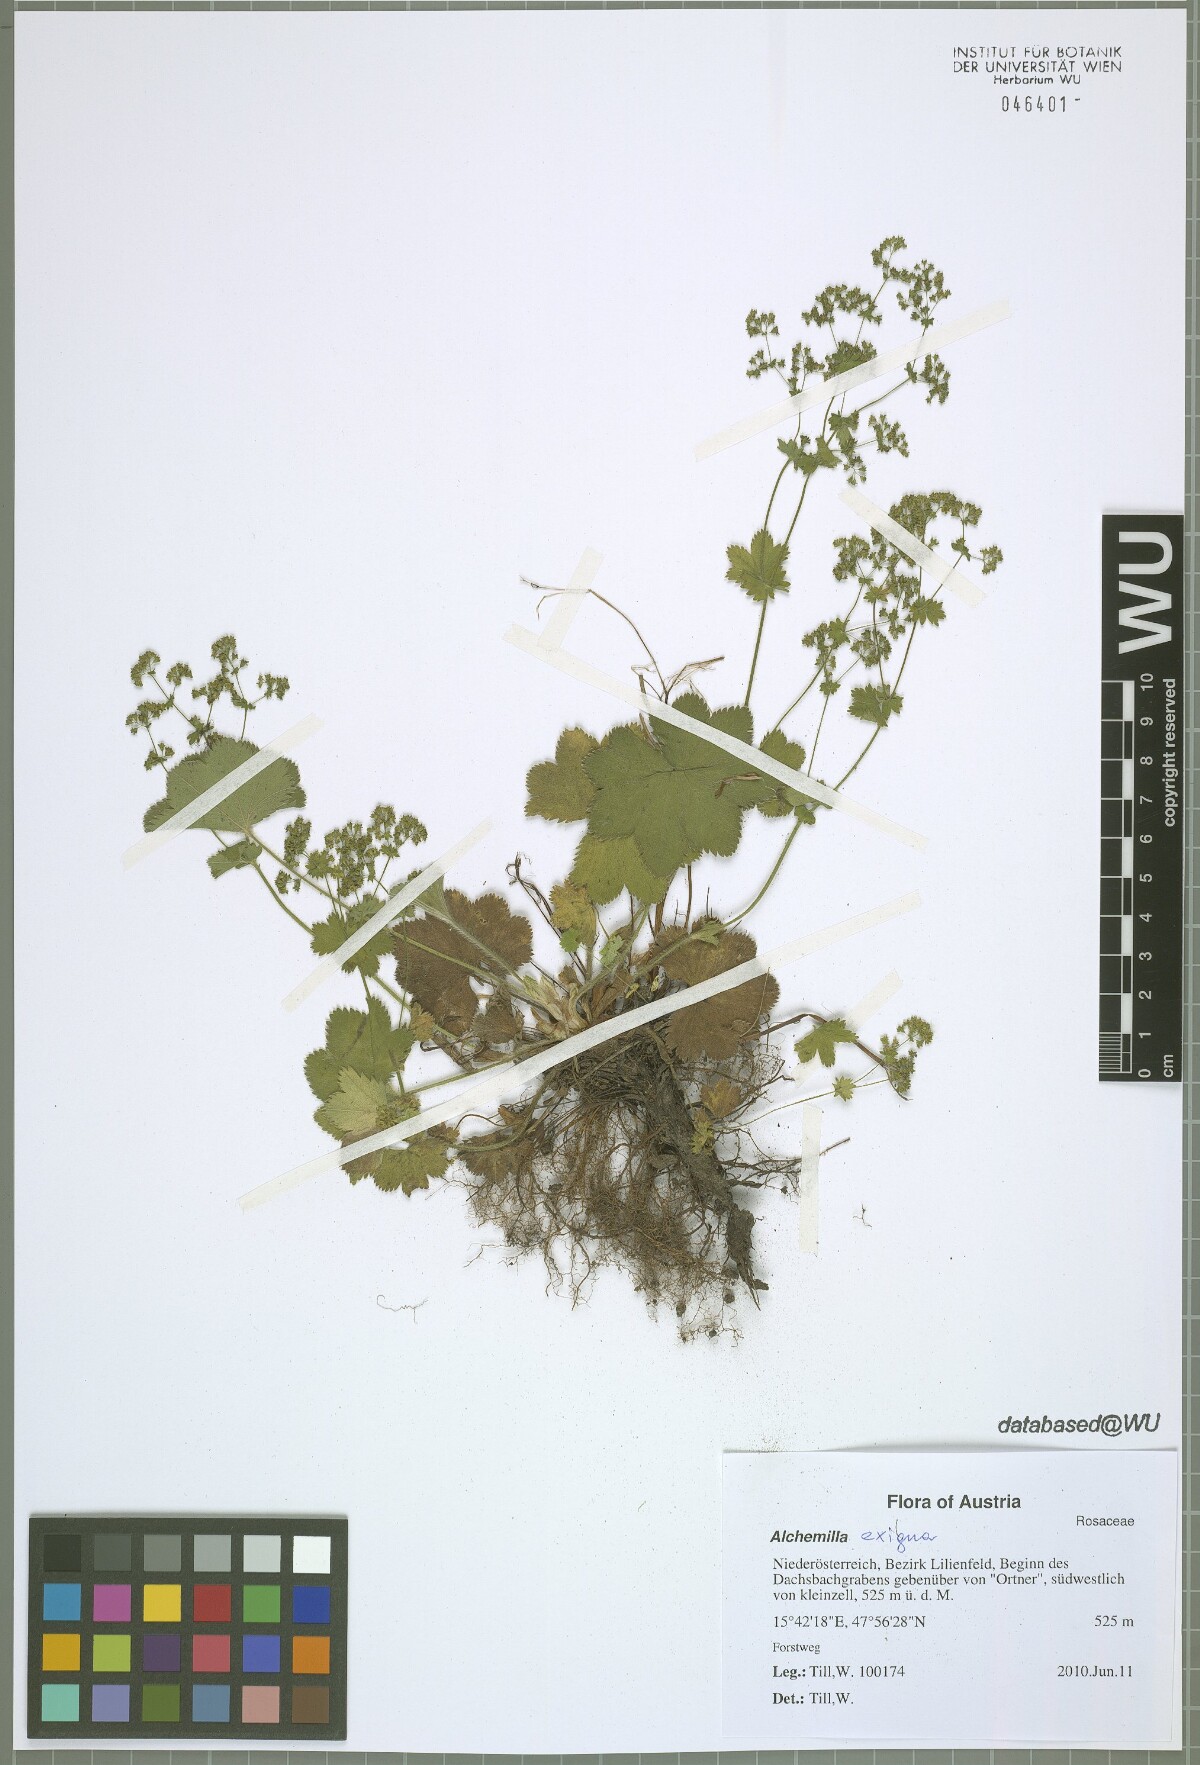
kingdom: Plantae
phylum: Tracheophyta
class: Magnoliopsida
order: Rosales
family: Rosaceae
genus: Alchemilla
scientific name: Alchemilla exigua
